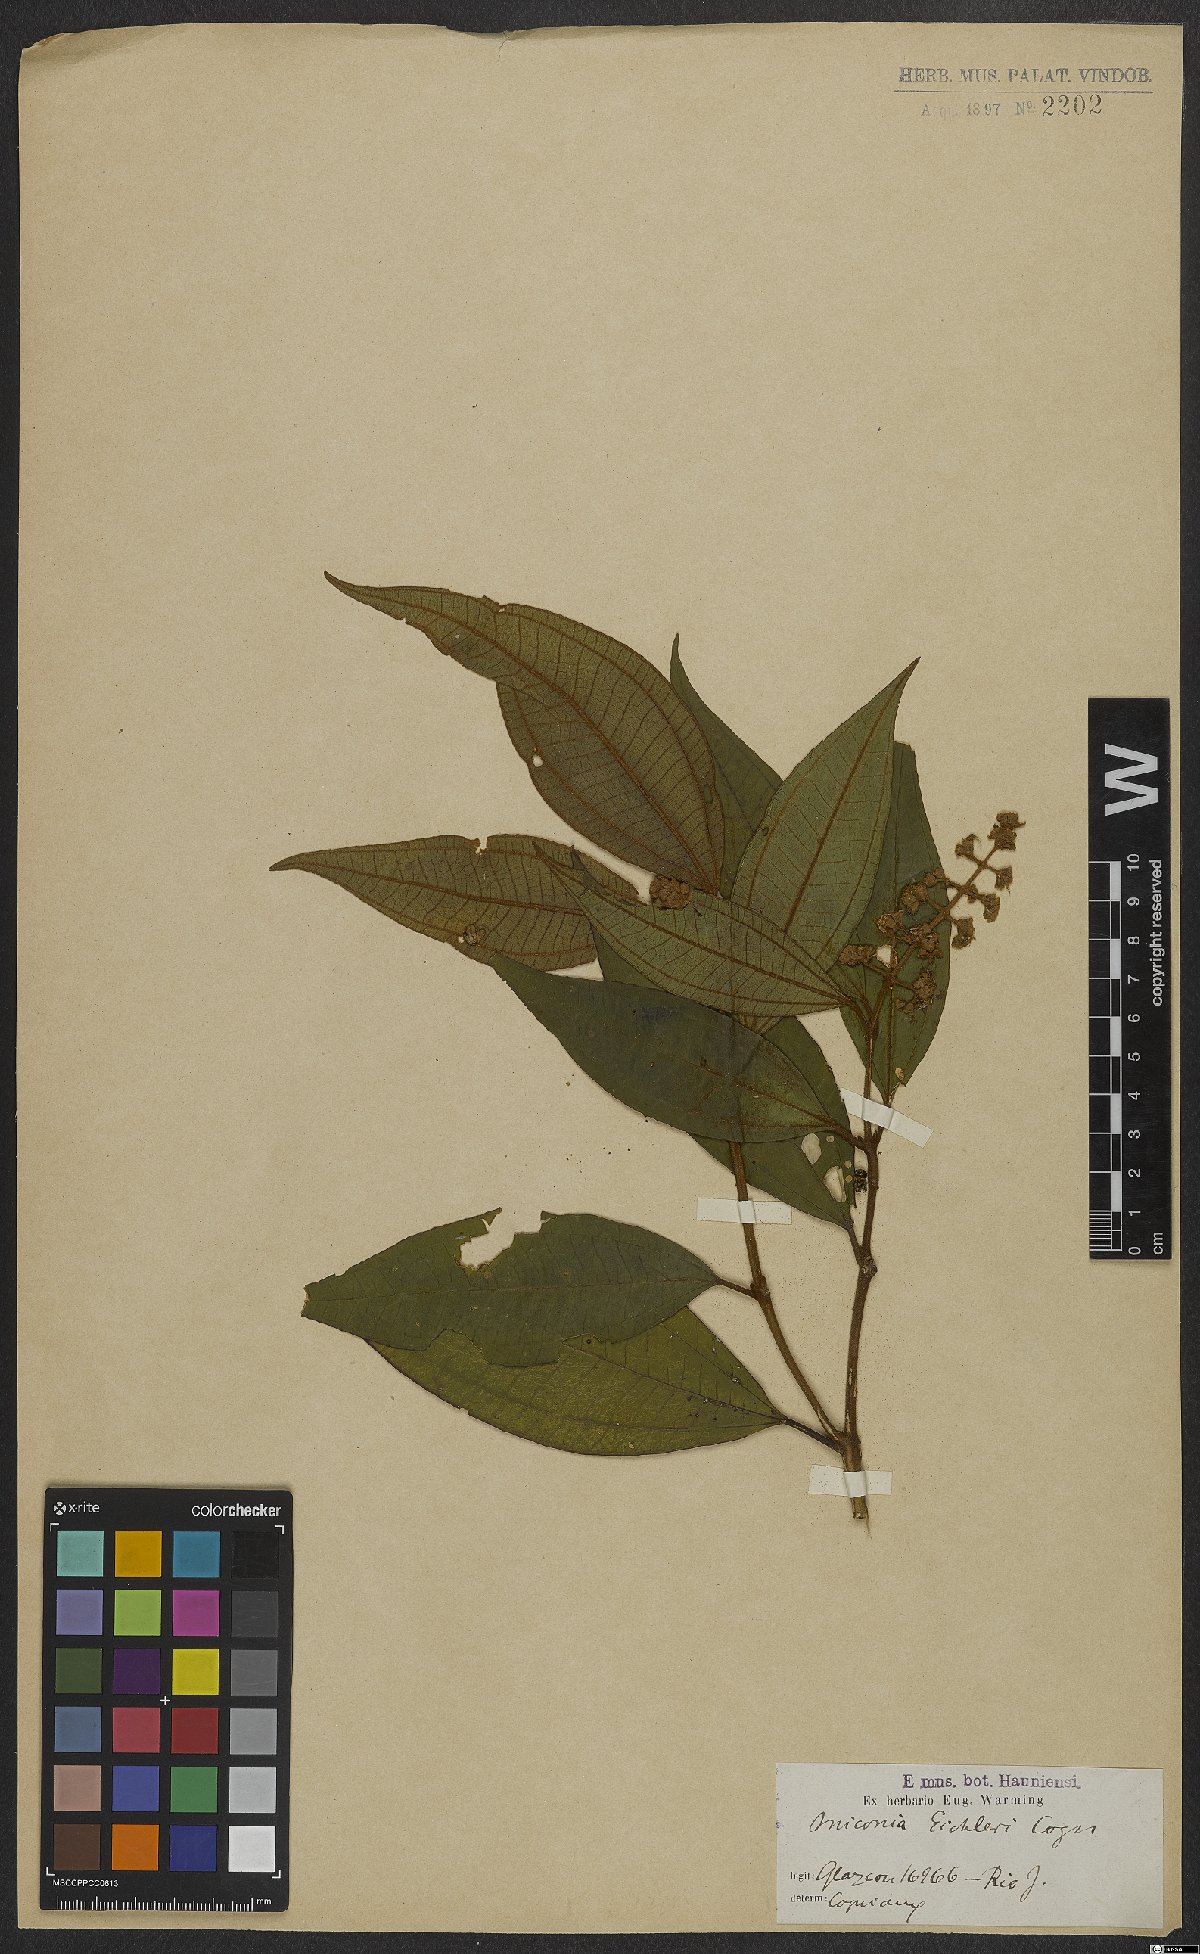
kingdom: Plantae
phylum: Tracheophyta
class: Magnoliopsida
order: Myrtales
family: Melastomataceae
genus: Miconia
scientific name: Miconia valtheri
